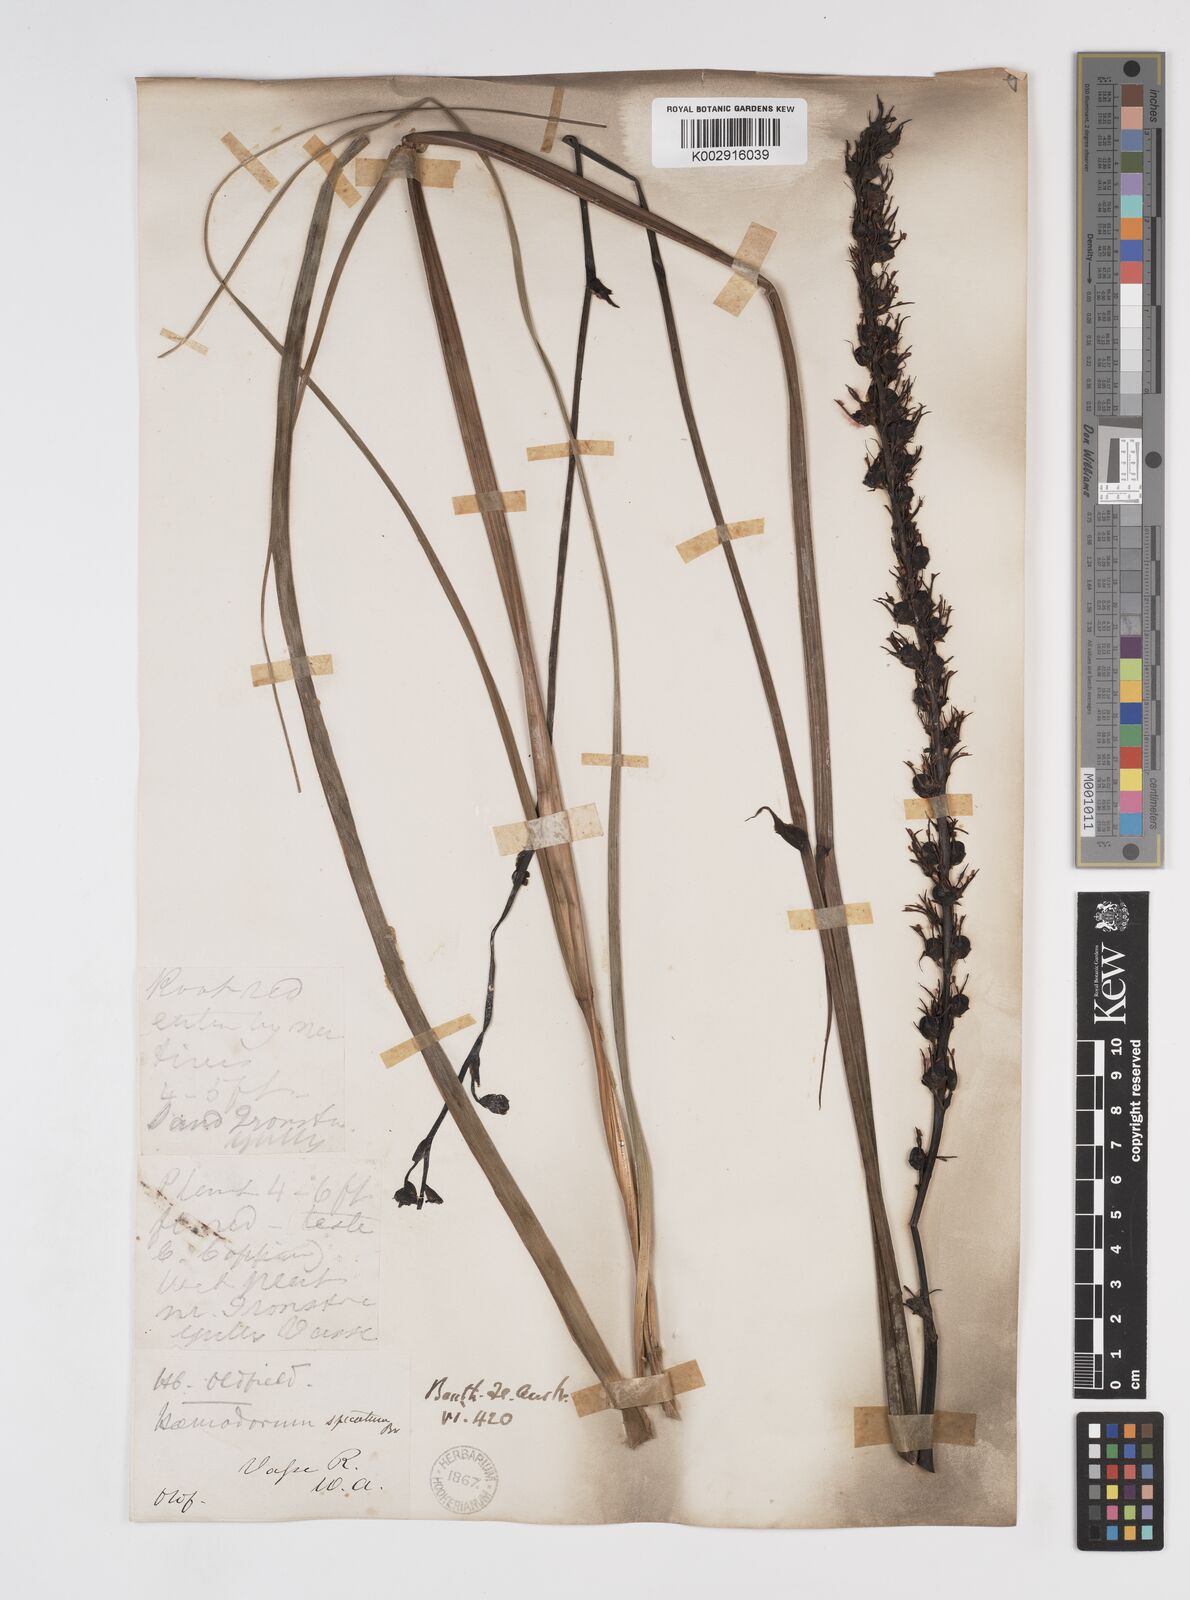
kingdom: Plantae
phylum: Tracheophyta
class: Liliopsida
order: Commelinales
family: Haemodoraceae
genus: Haemodorum
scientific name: Haemodorum spicatum
